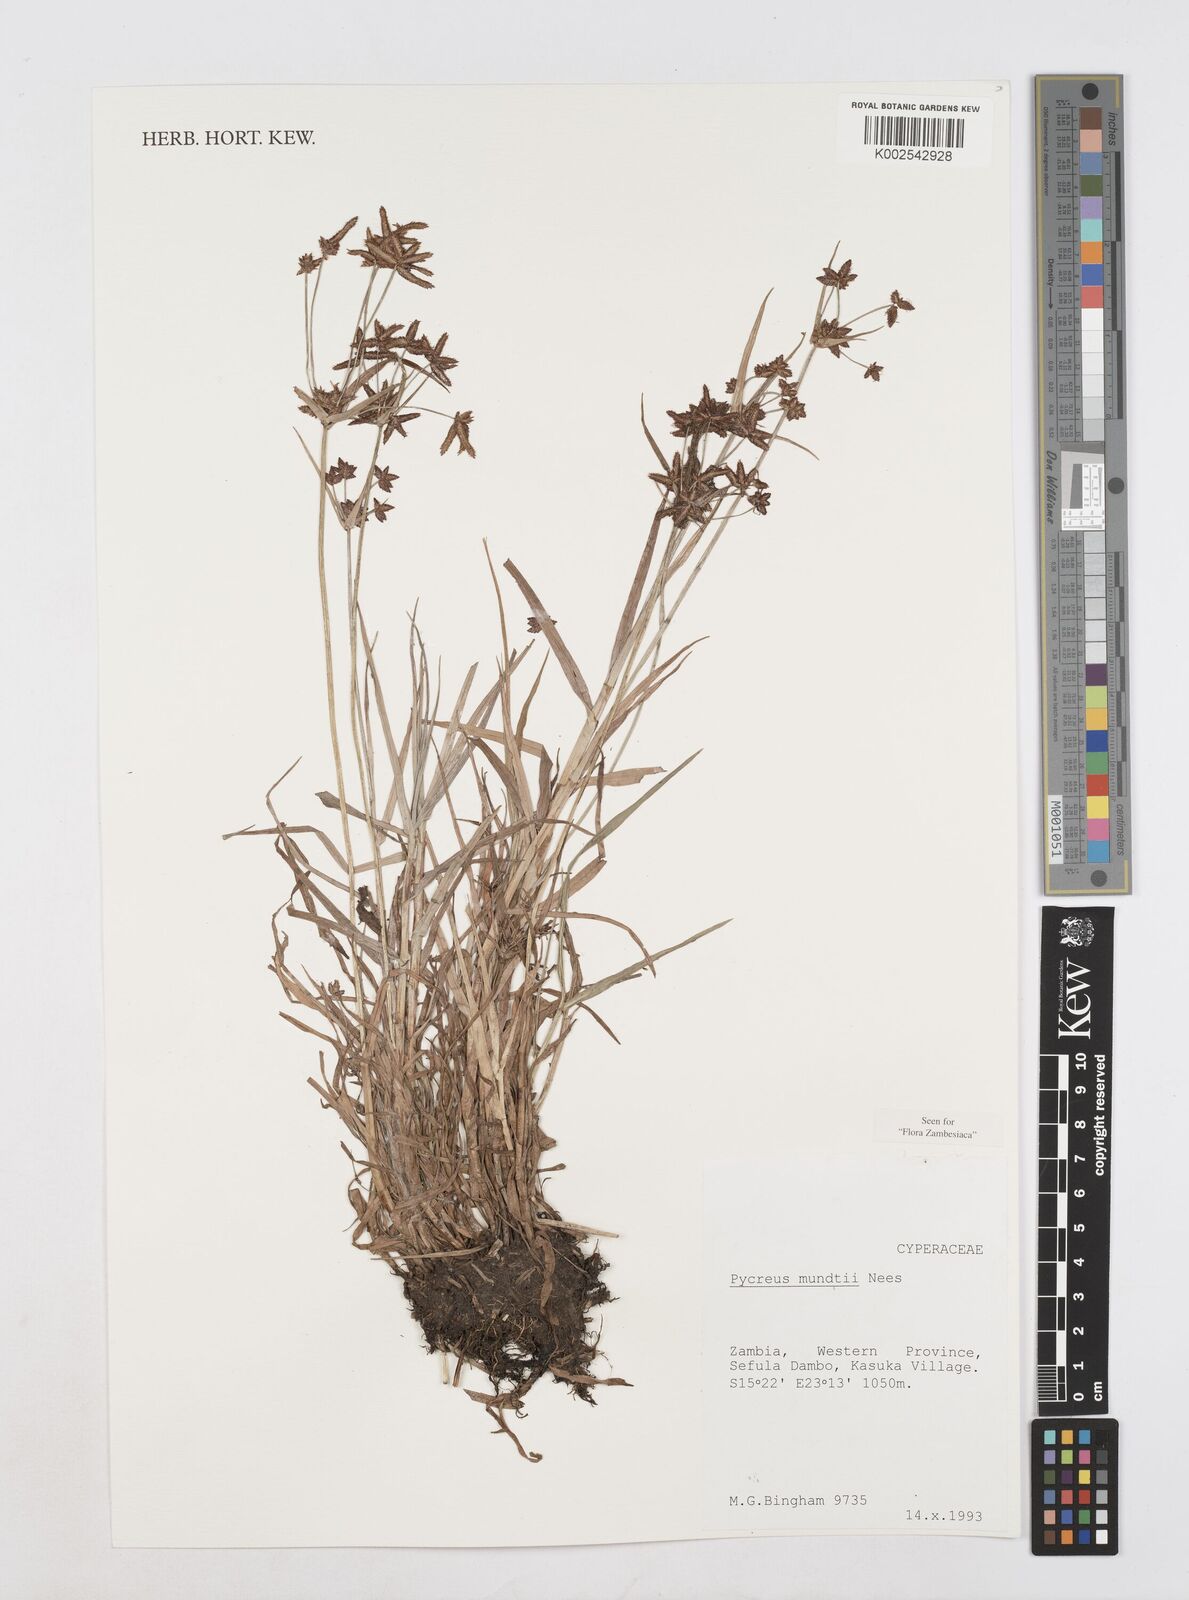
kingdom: Plantae
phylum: Tracheophyta
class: Liliopsida
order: Poales
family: Cyperaceae
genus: Cyperus
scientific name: Cyperus mundii
